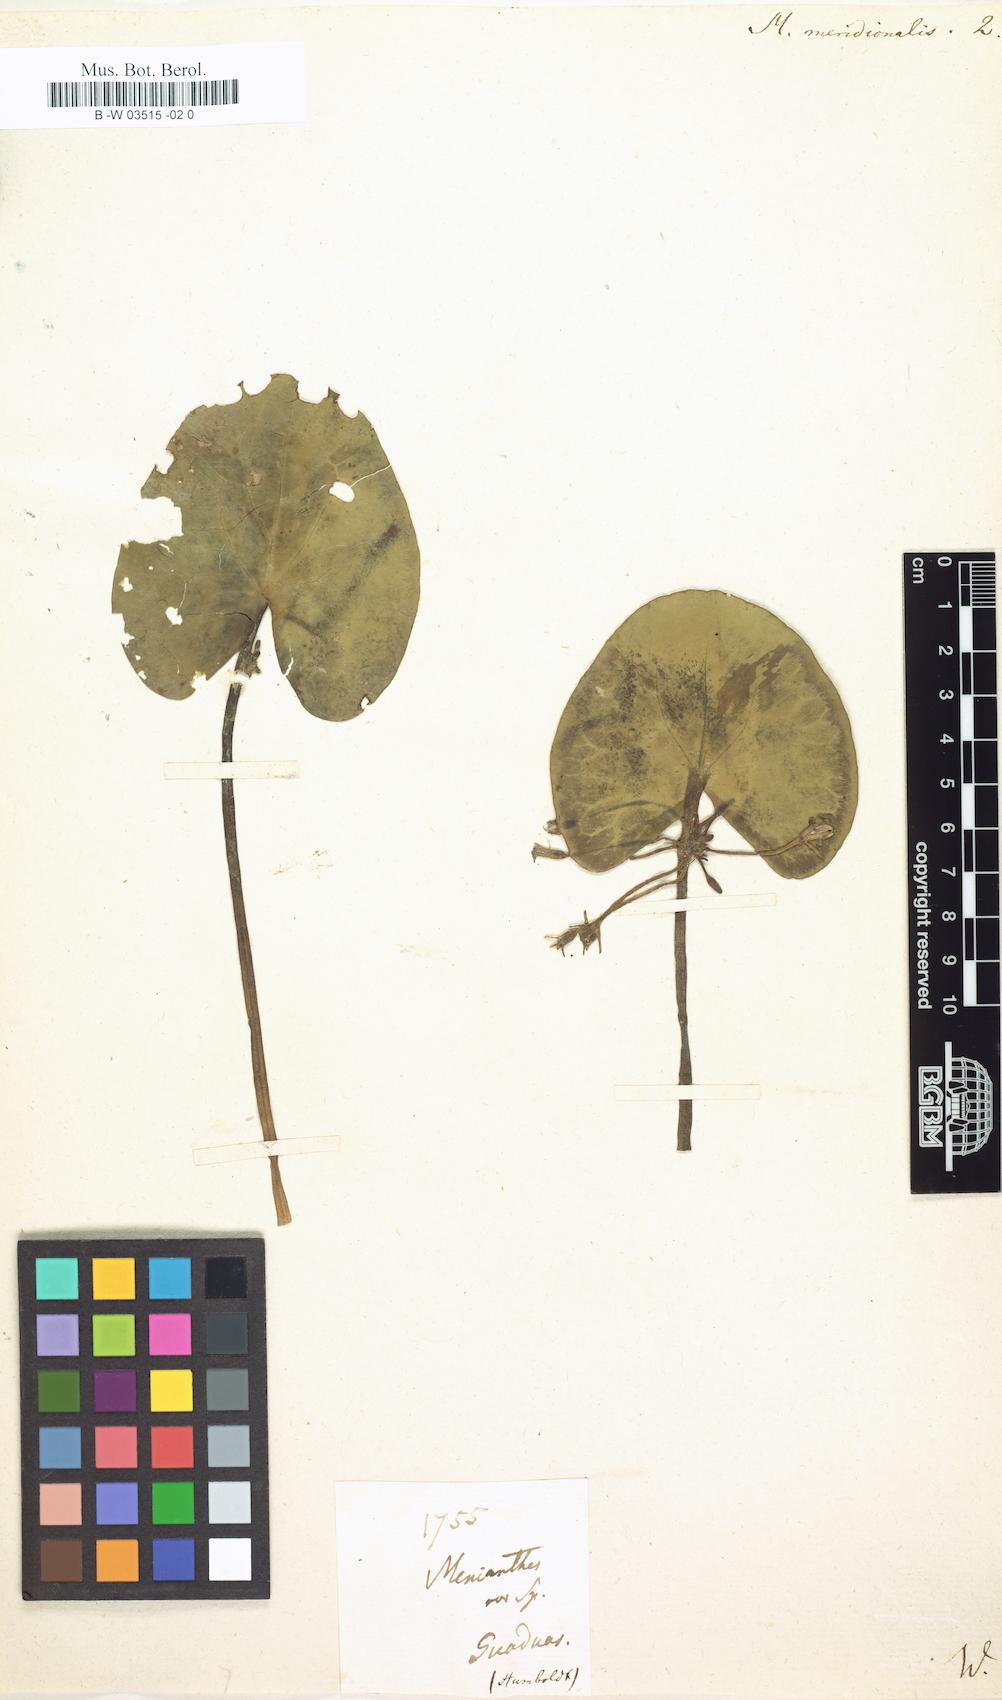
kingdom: Plantae
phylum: Tracheophyta
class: Magnoliopsida
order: Asterales
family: Menyanthaceae
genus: Nymphoides
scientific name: Nymphoides indica
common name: Water-snowflake
